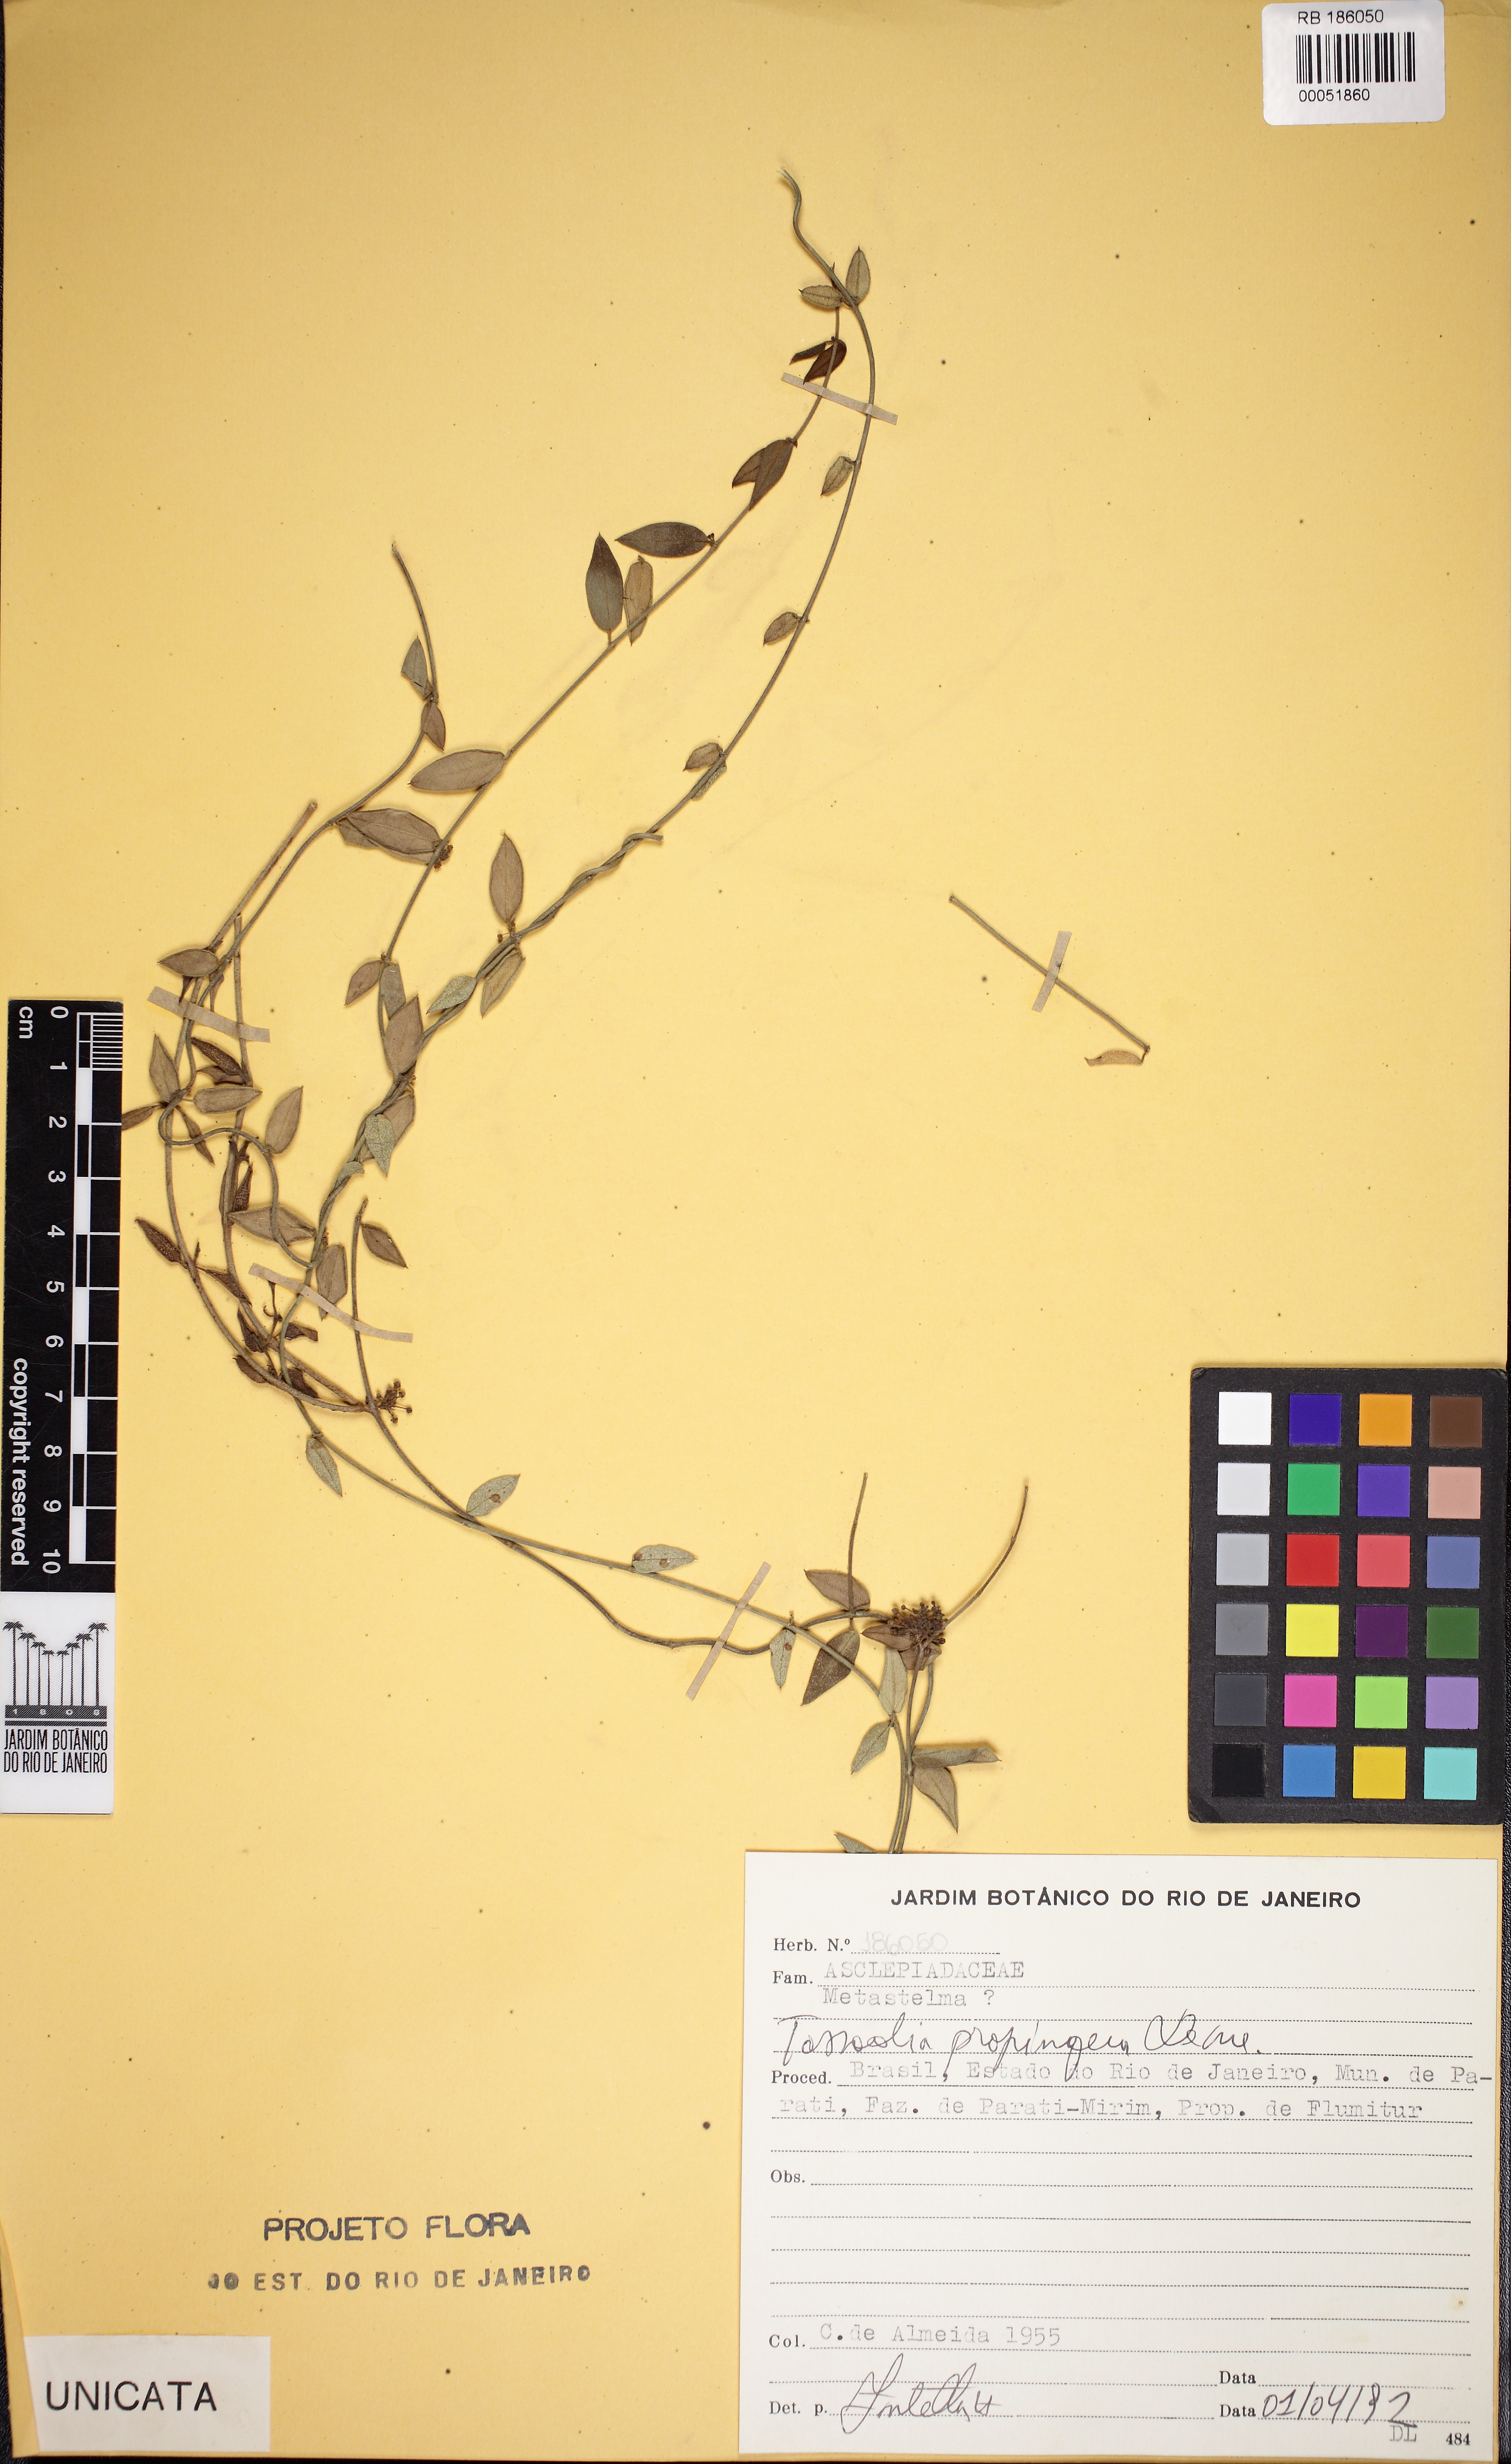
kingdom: Plantae
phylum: Tracheophyta
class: Magnoliopsida
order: Gentianales
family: Apocynaceae
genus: Tassadia
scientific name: Tassadia propinqua
